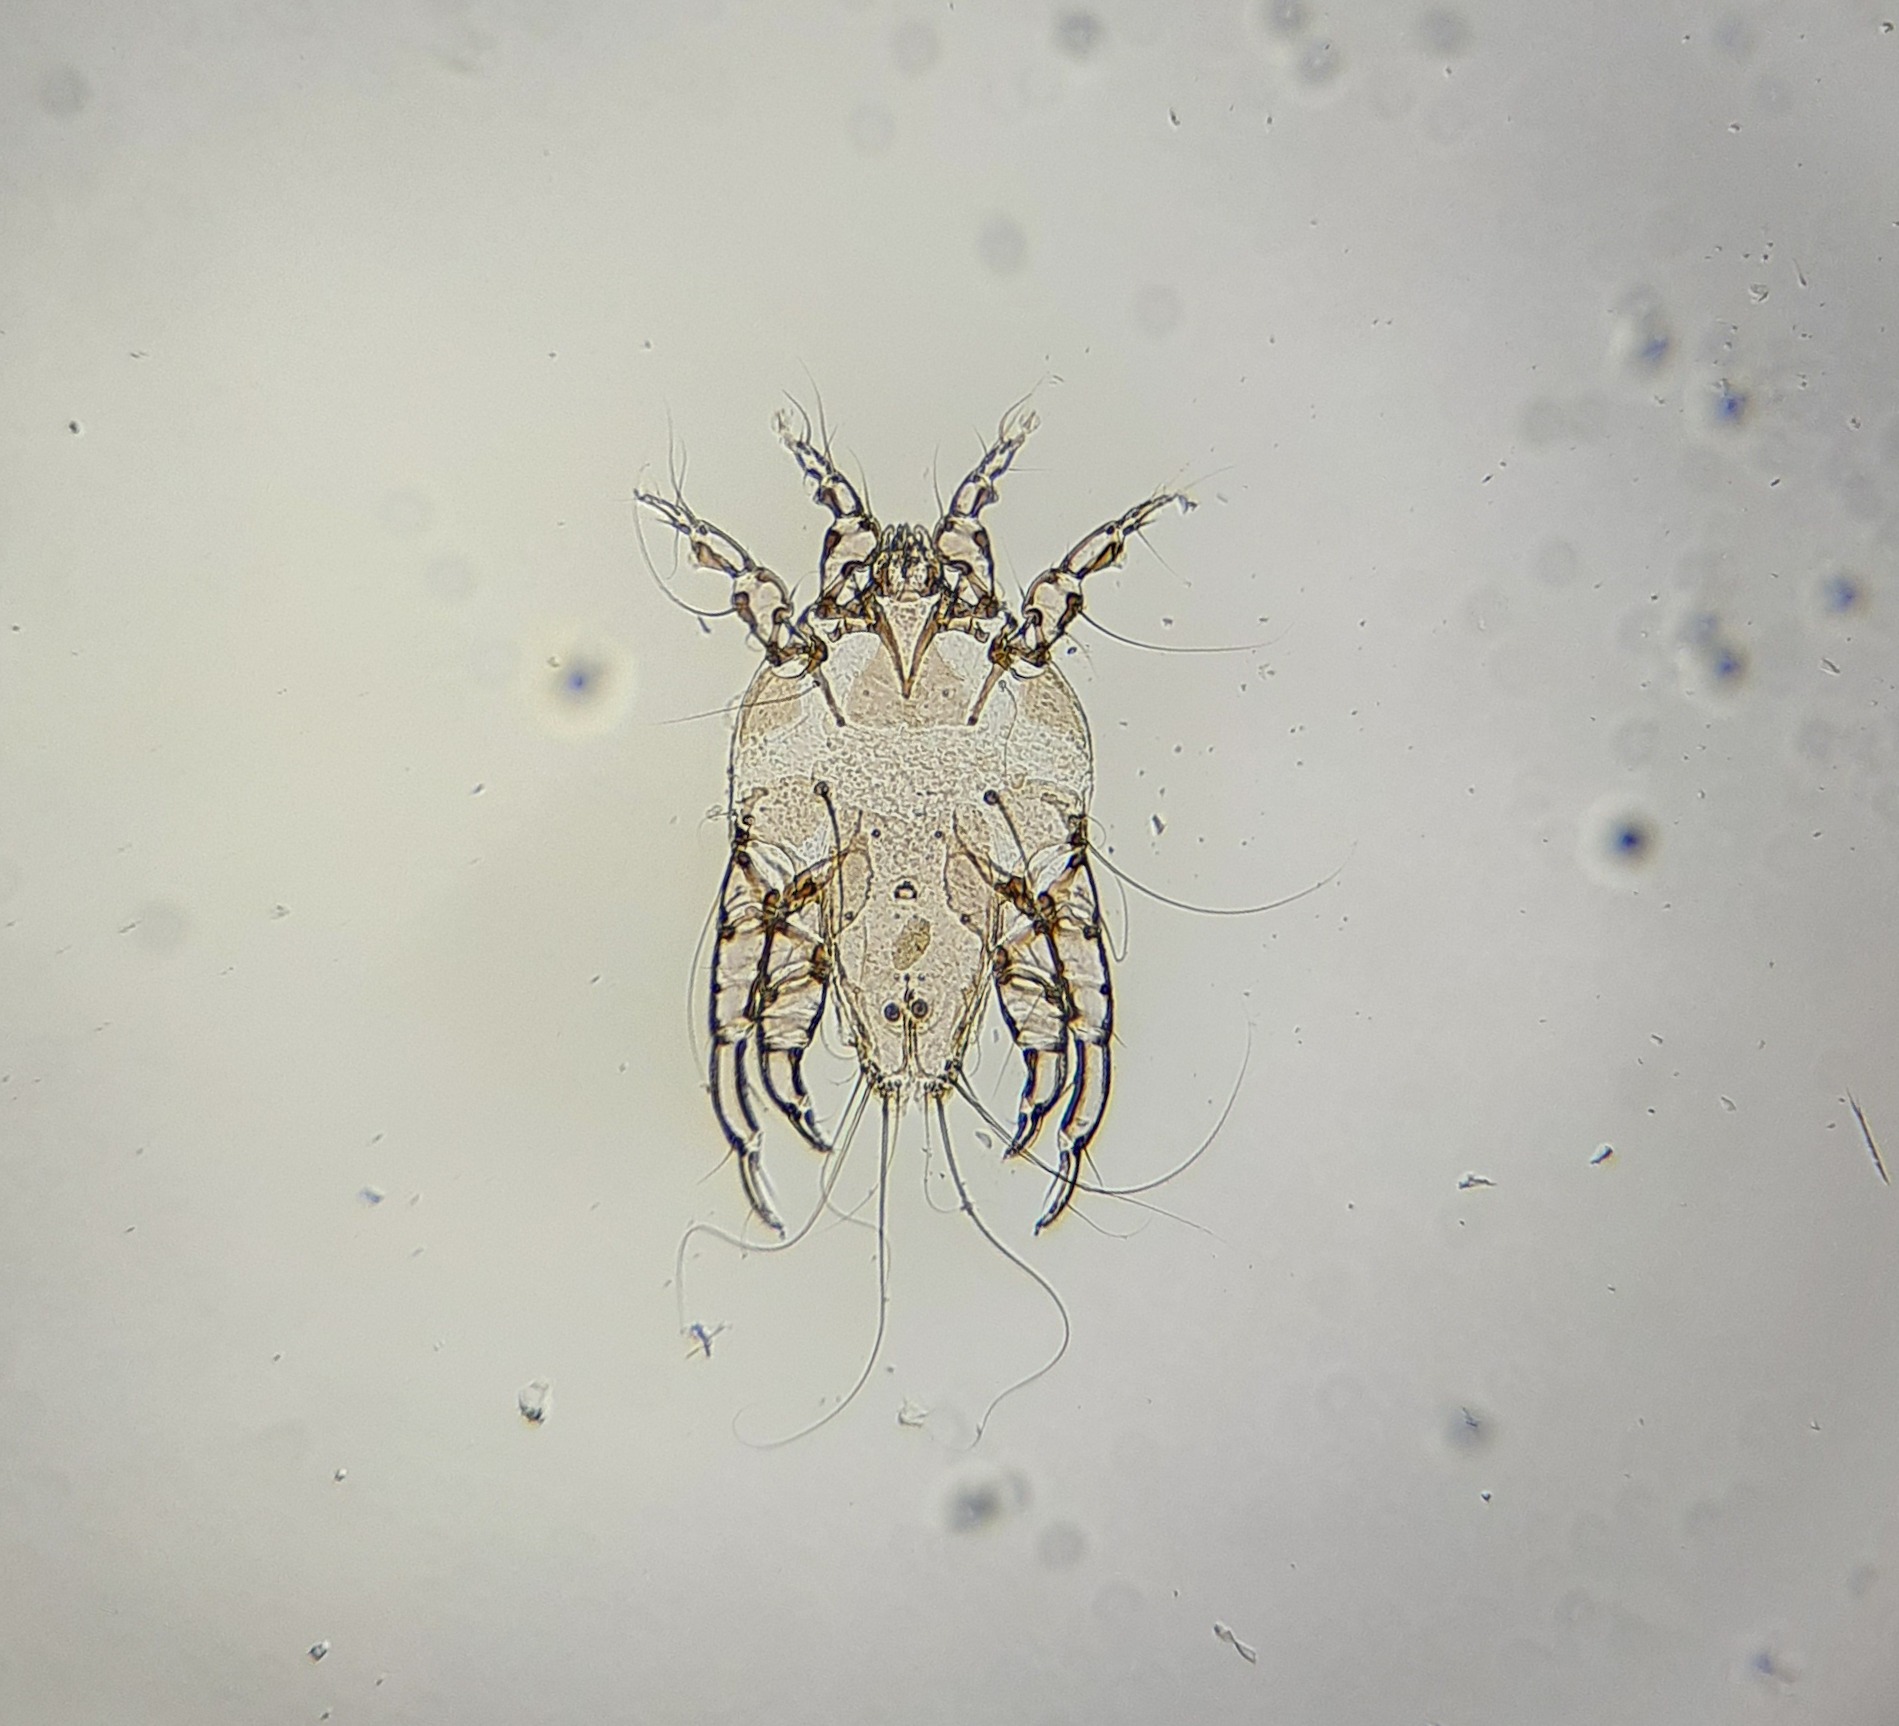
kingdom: Animalia
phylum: Arthropoda
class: Arachnida
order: Sarcoptiformes
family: Xolalgidae
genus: Glaucalges
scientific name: Glaucalges attenuatus
